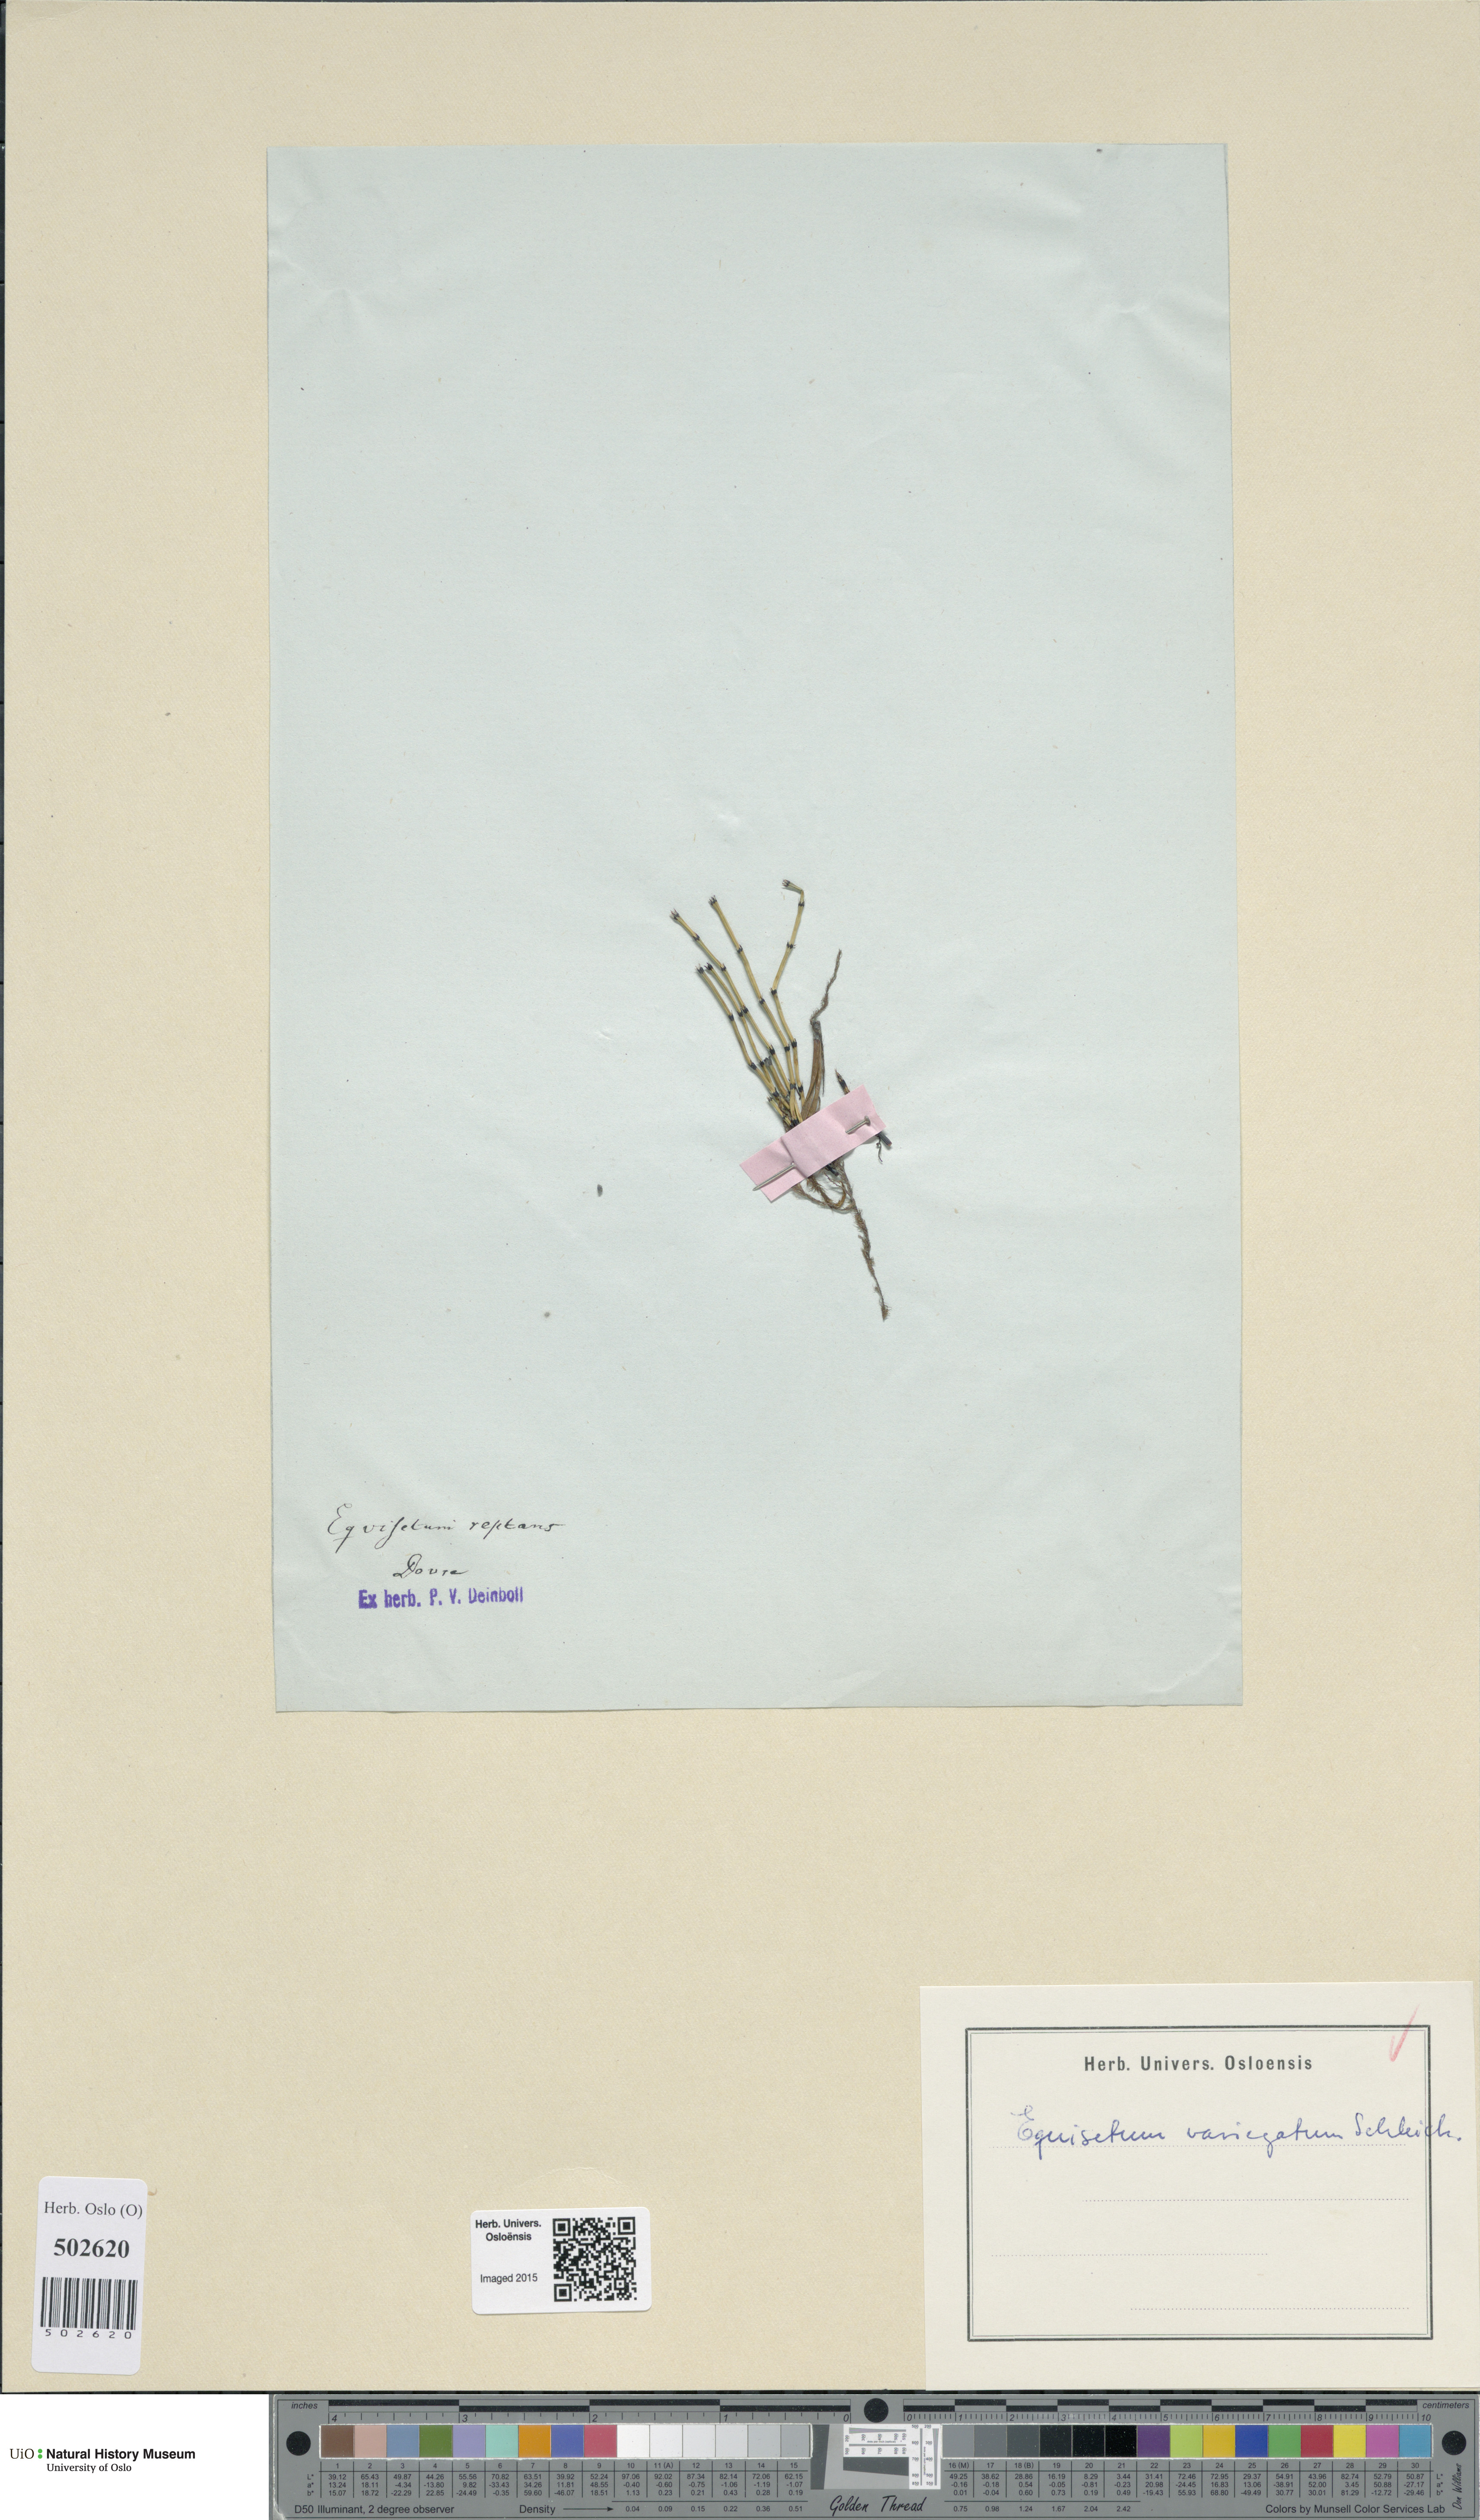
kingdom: Plantae
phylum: Tracheophyta
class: Polypodiopsida
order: Equisetales
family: Equisetaceae
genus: Equisetum
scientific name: Equisetum variegatum
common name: Variegated horsetail
